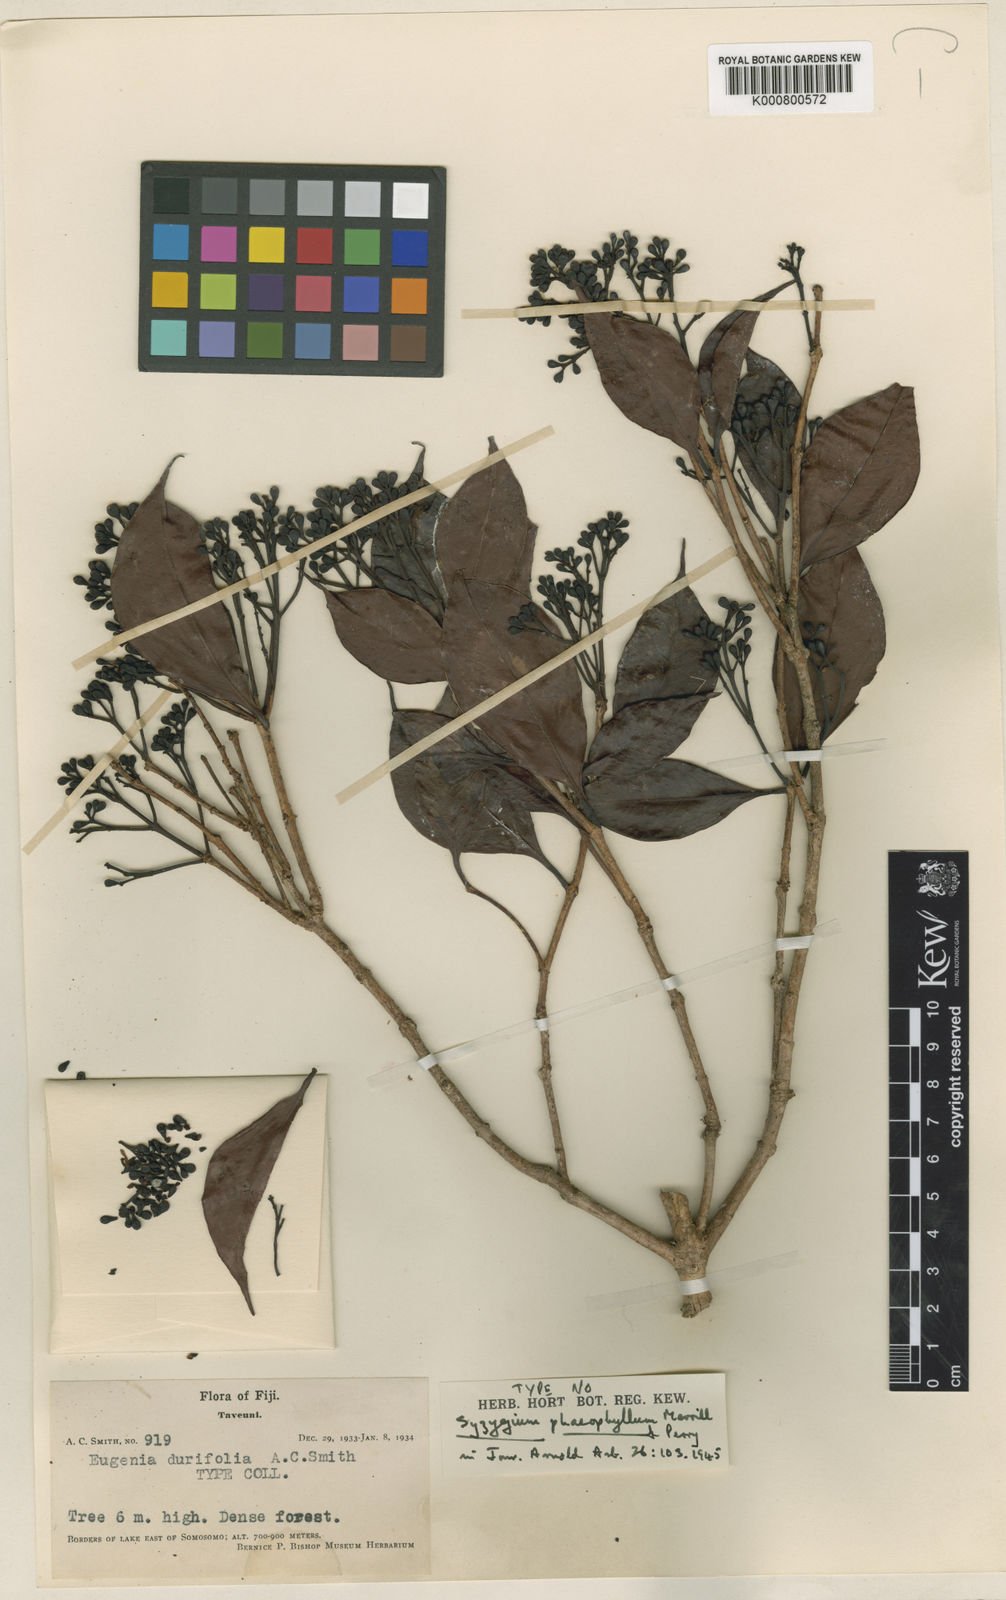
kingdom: Plantae
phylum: Tracheophyta
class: Magnoliopsida
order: Myrtales
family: Myrtaceae
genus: Syzygium
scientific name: Syzygium phaeophyllum
